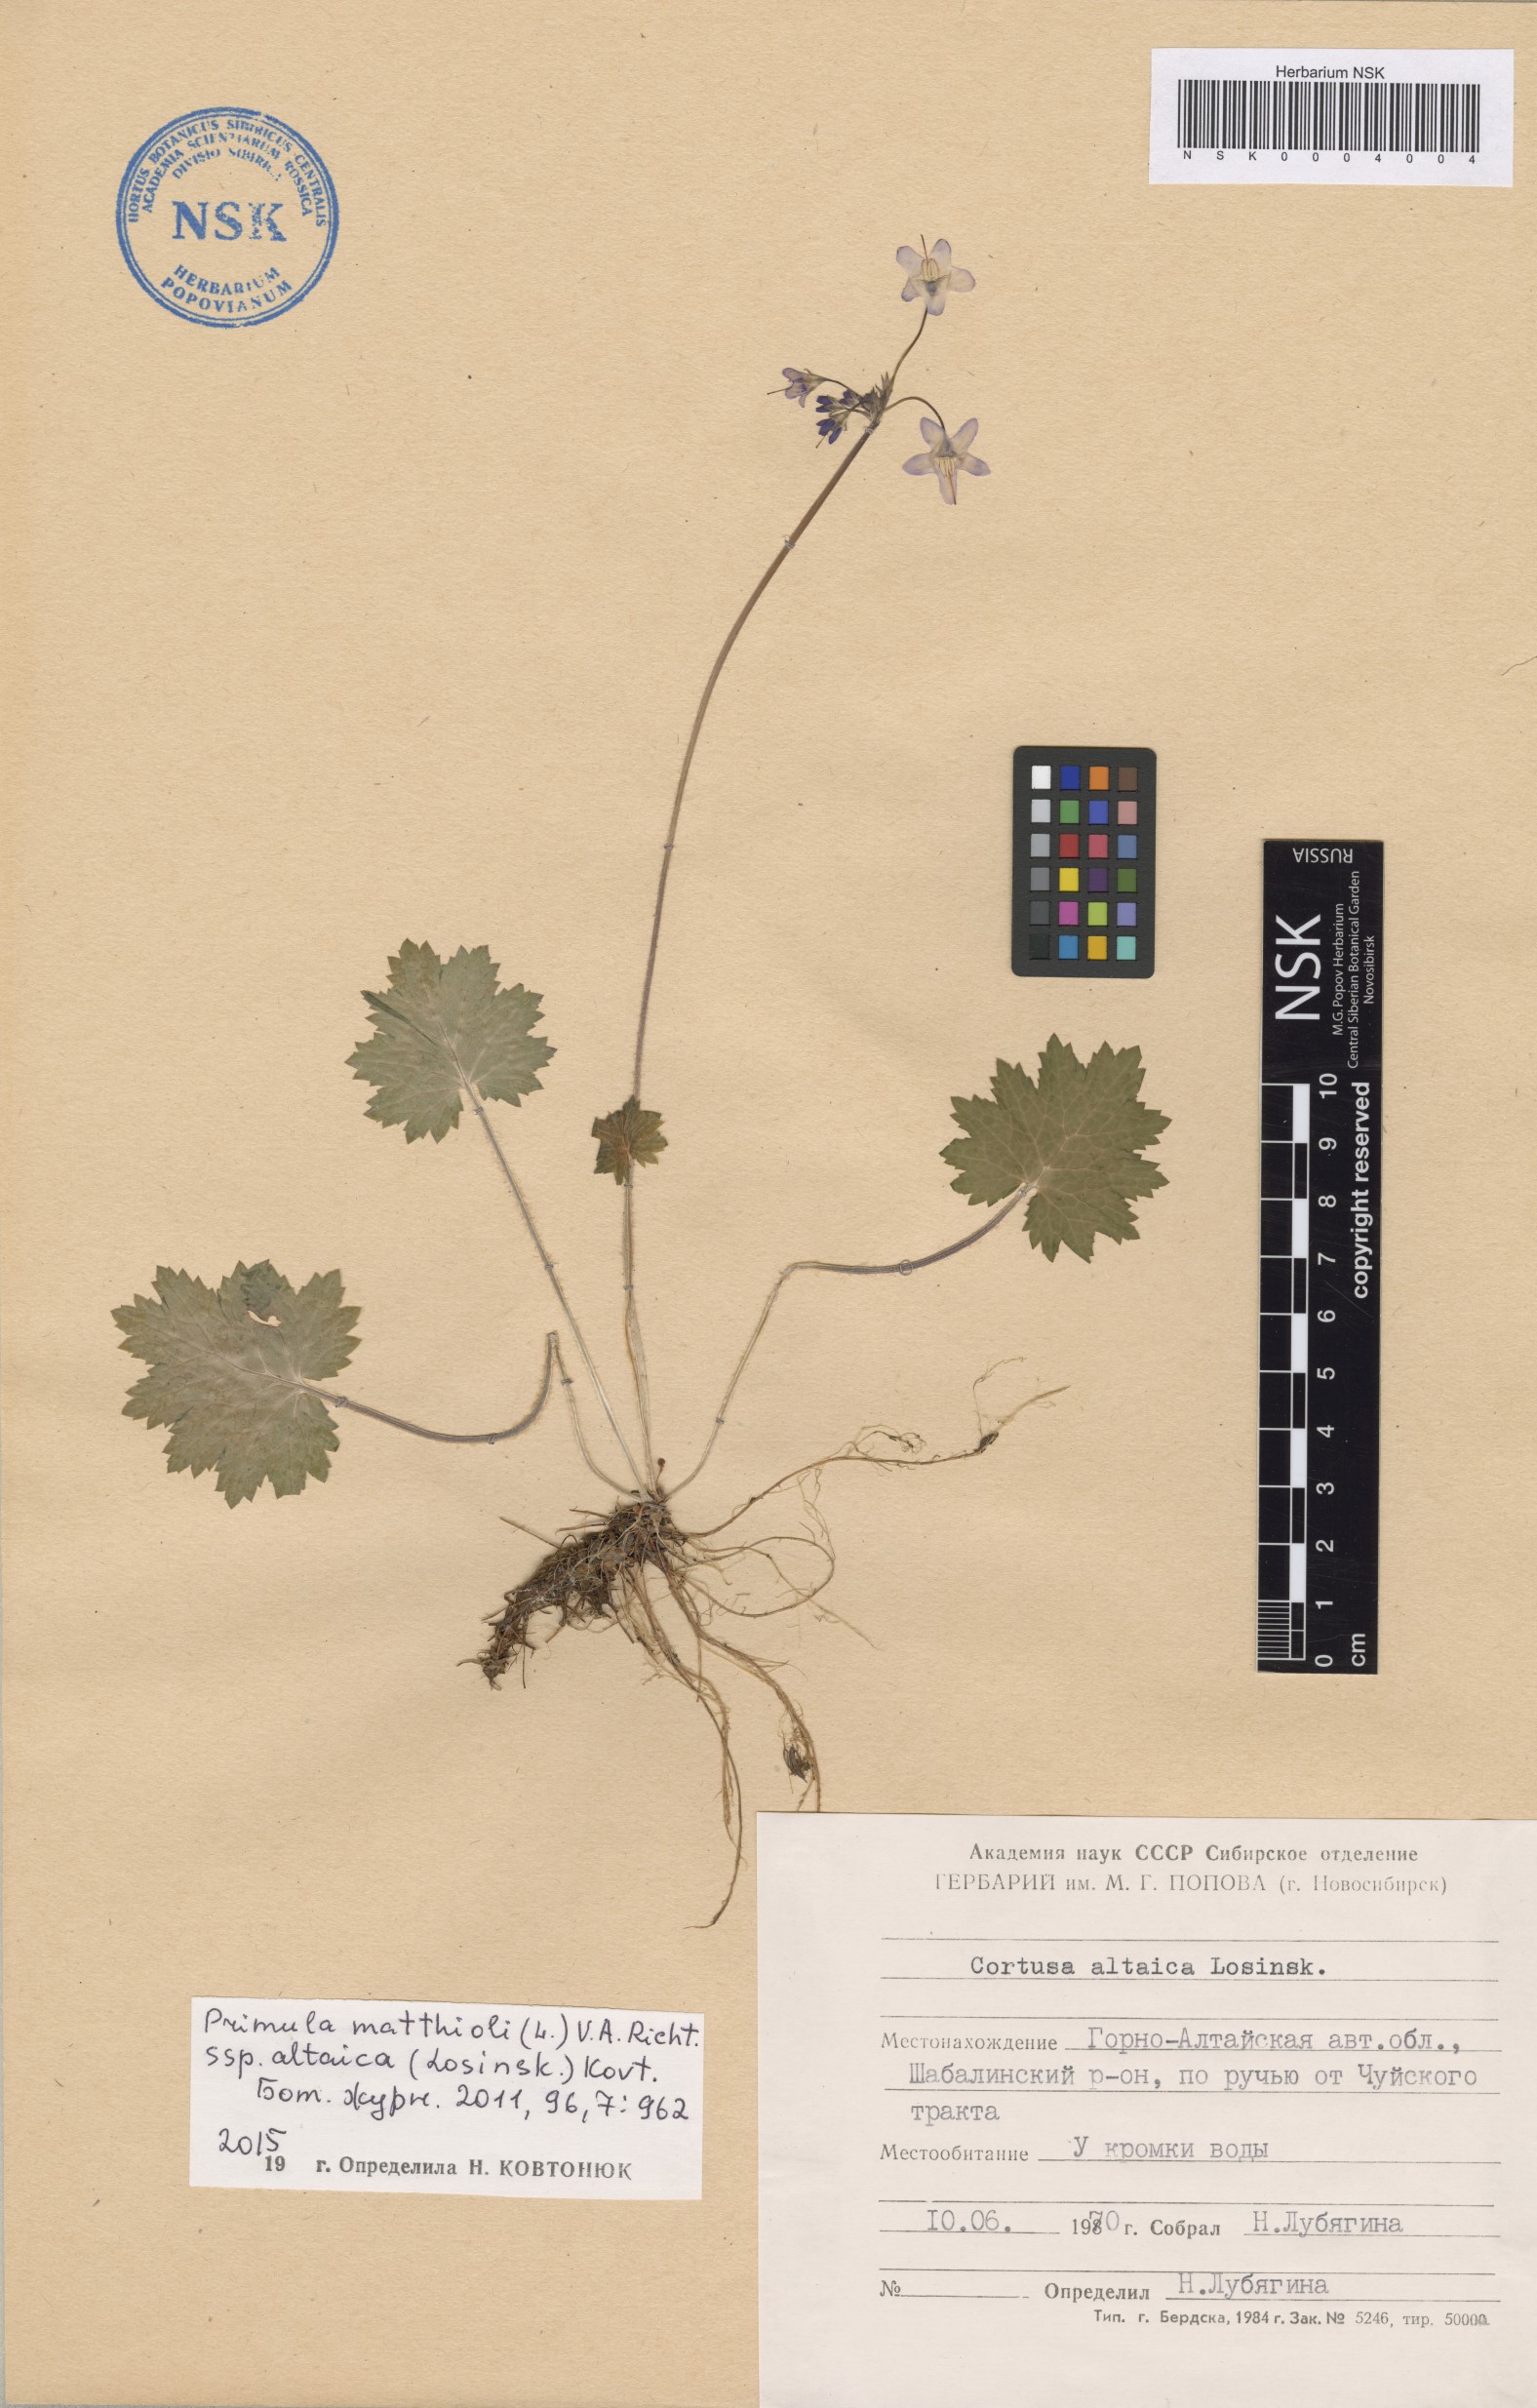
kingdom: Plantae
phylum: Tracheophyta
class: Magnoliopsida
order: Ericales
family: Primulaceae
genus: Primula
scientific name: Primula matthioli
